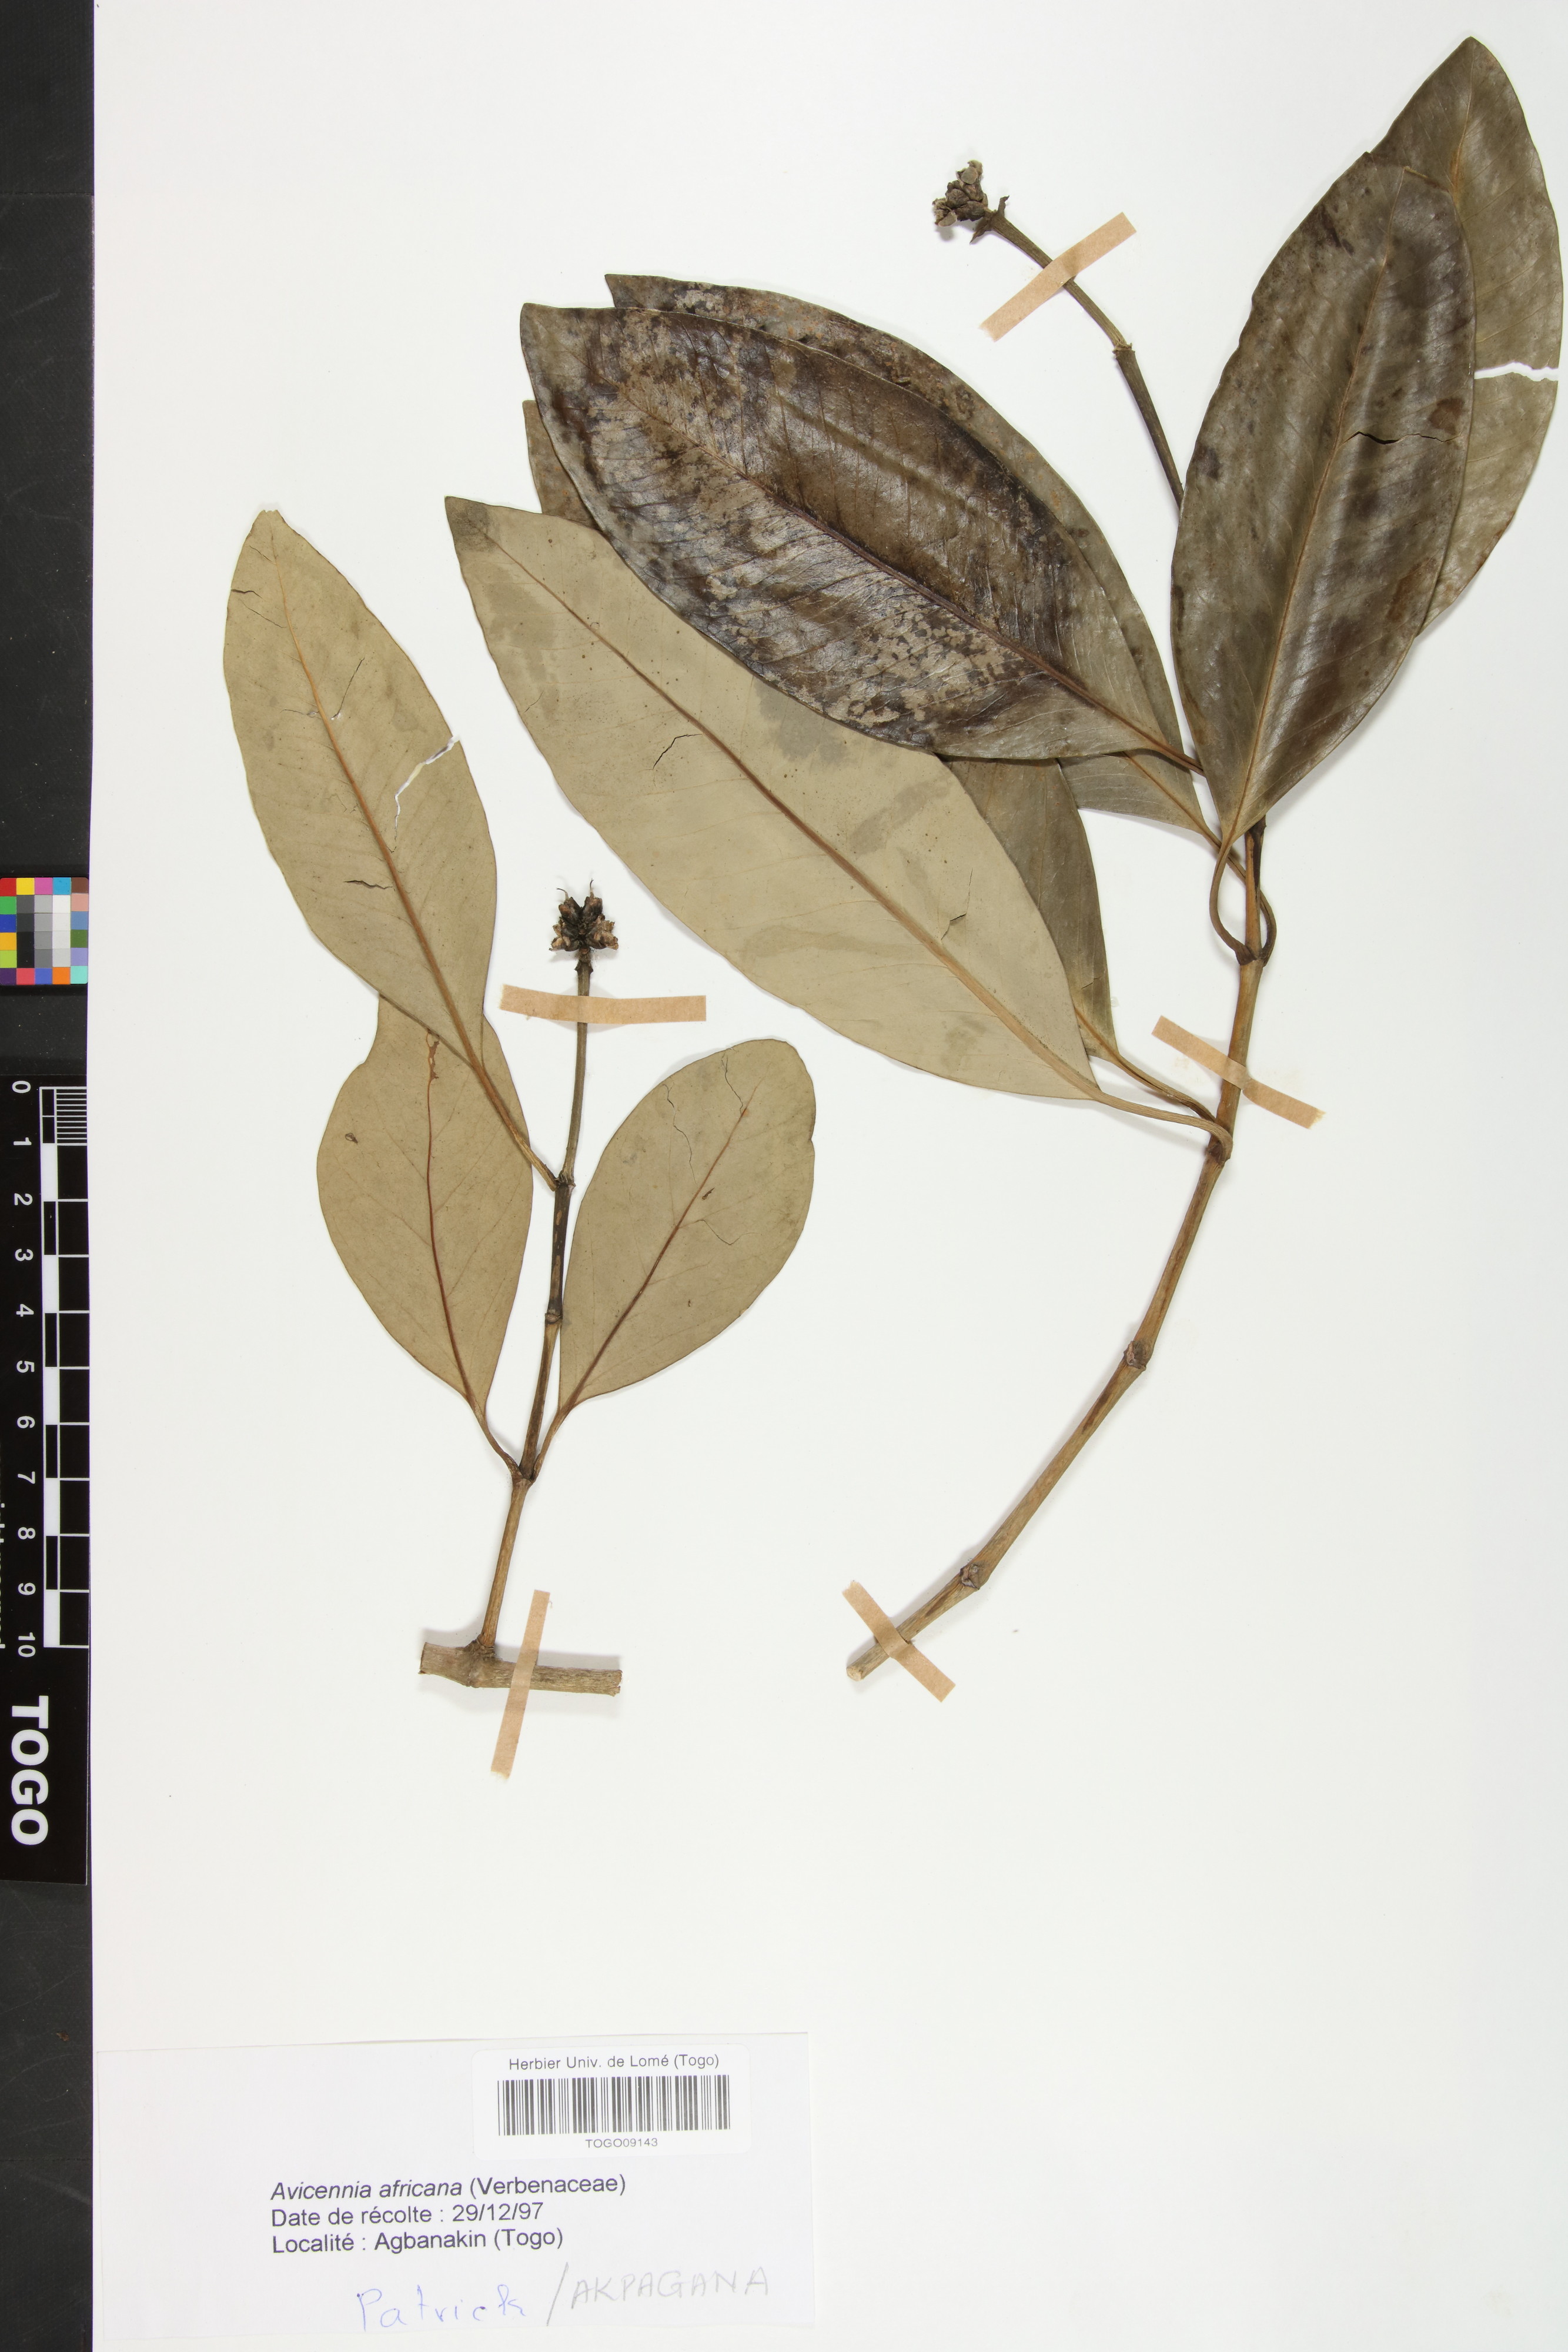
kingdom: Plantae
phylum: Tracheophyta
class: Magnoliopsida
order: Lamiales
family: Acanthaceae
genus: Avicennia
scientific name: Avicennia germinans
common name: Black mangrove
